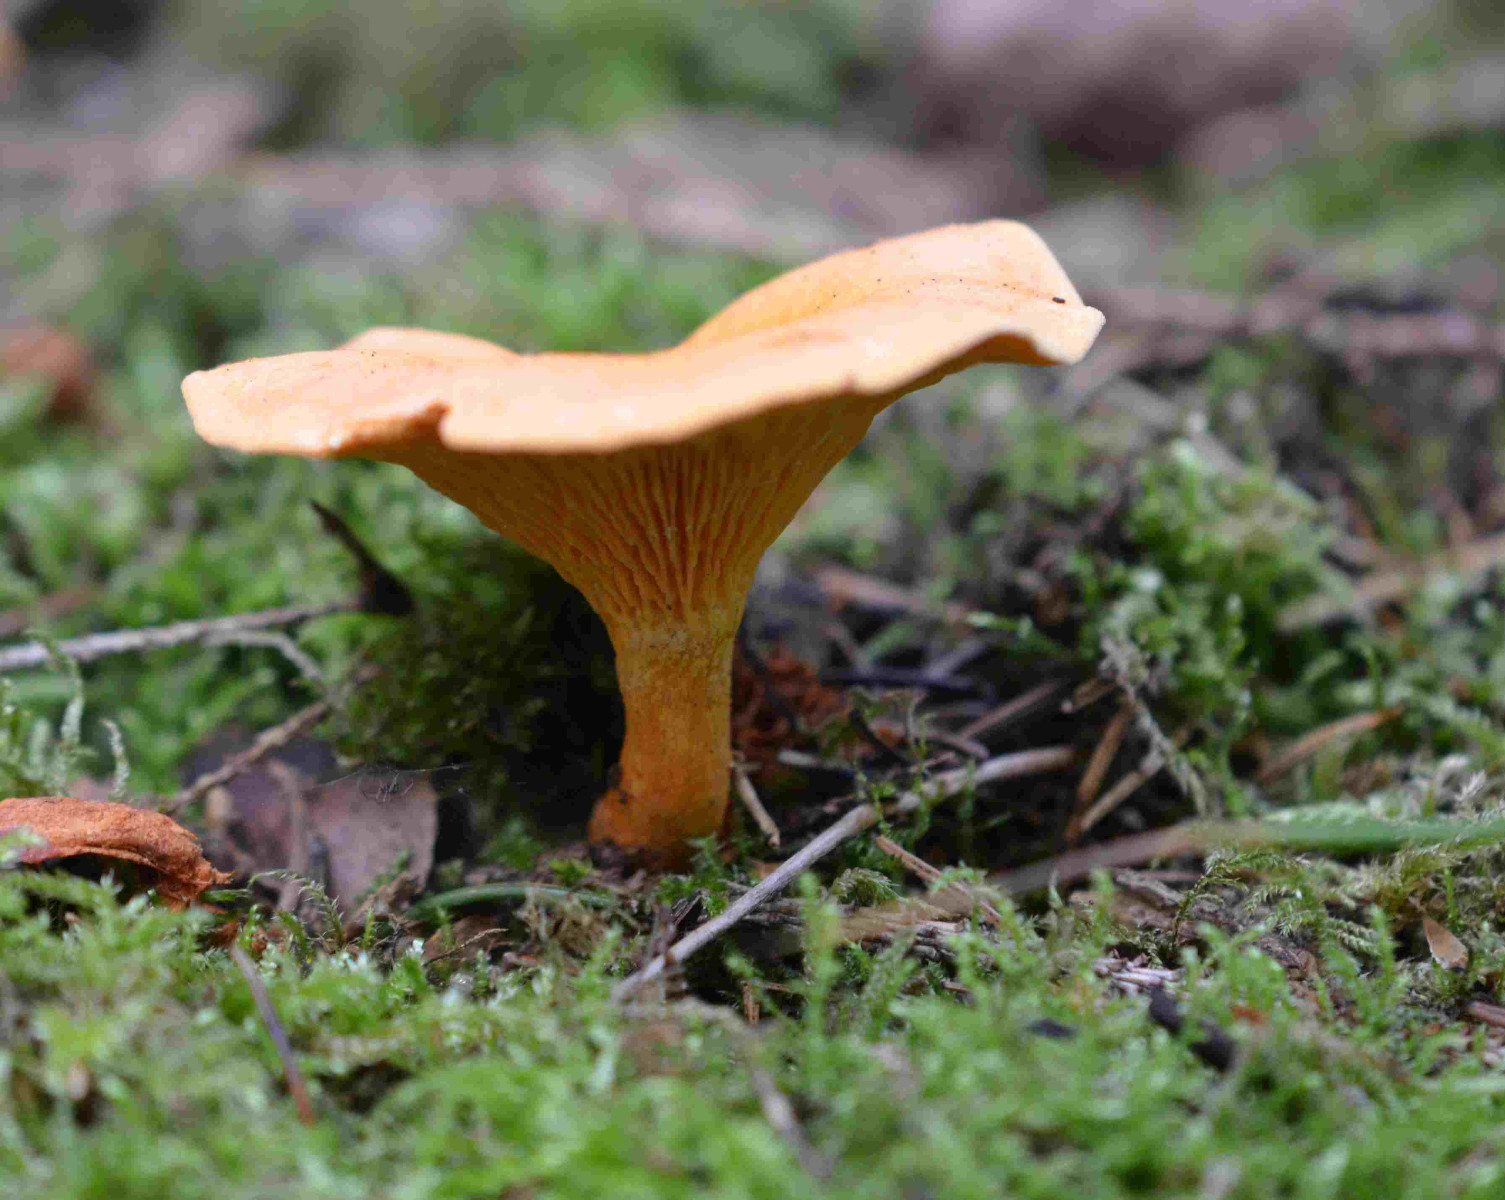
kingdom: Fungi
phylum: Basidiomycota
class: Agaricomycetes
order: Boletales
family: Hygrophoropsidaceae
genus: Hygrophoropsis
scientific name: Hygrophoropsis aurantiaca
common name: almindelig orangekantarel
